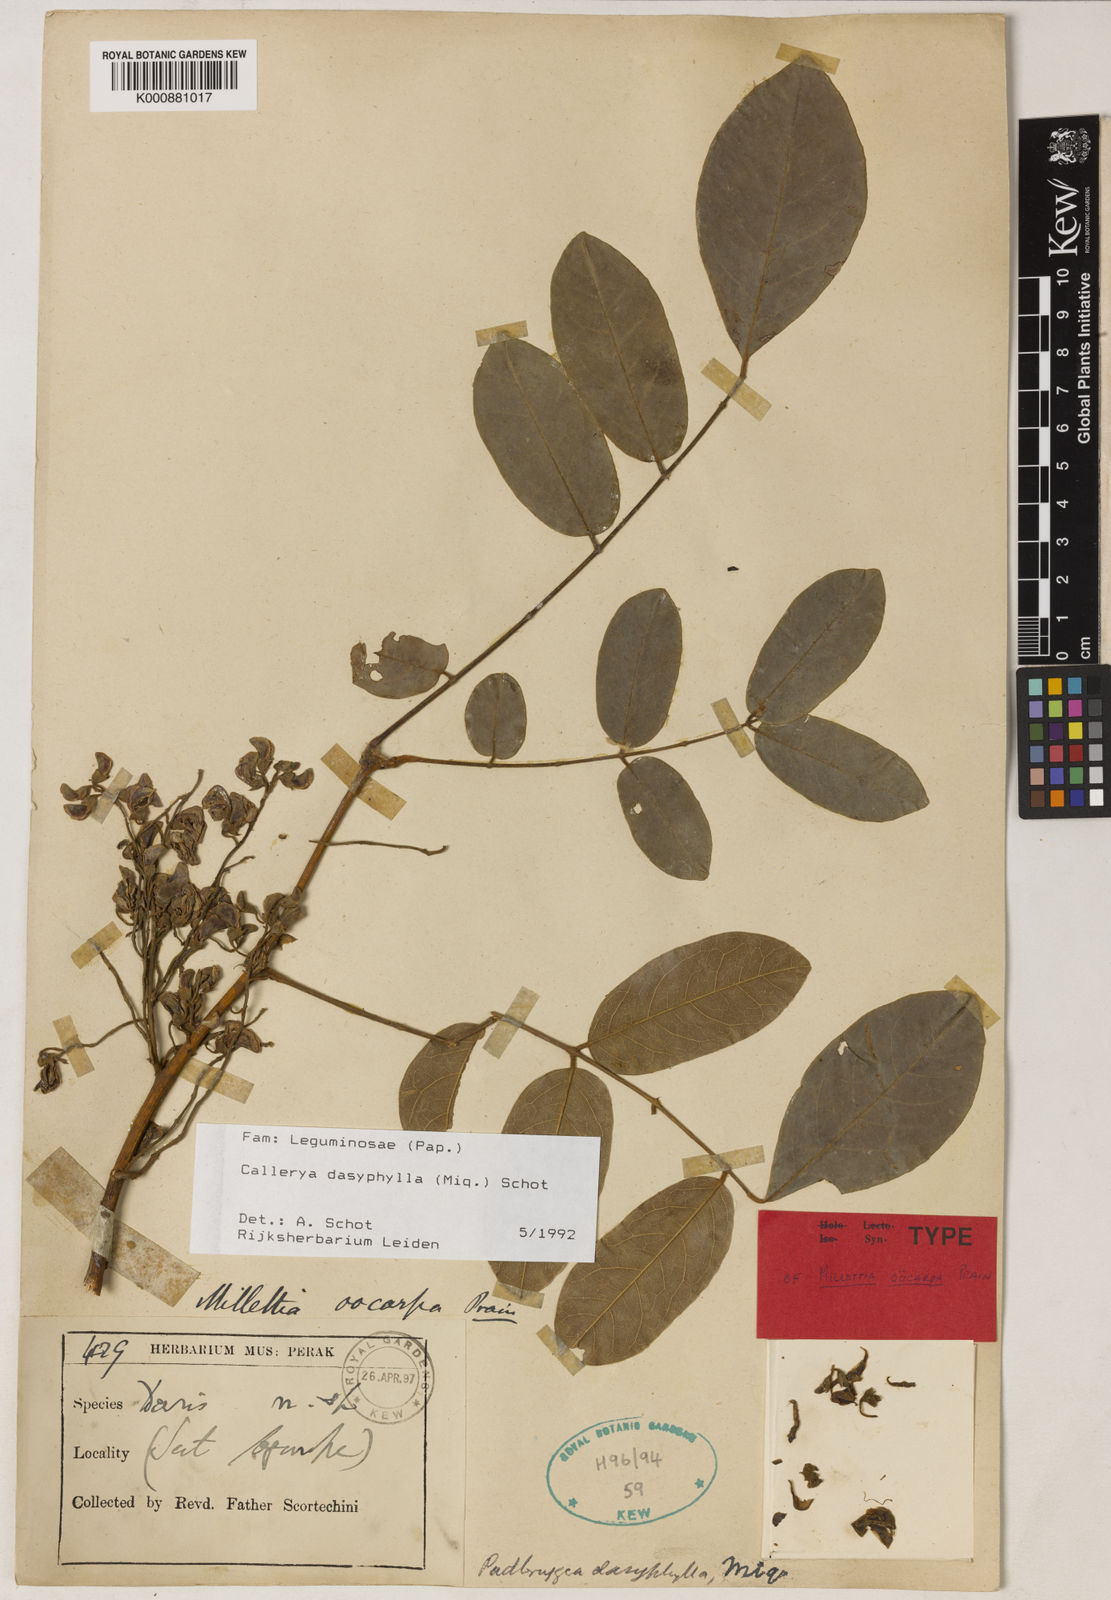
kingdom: Plantae
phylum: Tracheophyta
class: Magnoliopsida
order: Fabales
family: Fabaceae
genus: Padbruggea
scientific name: Padbruggea dasyphylla
